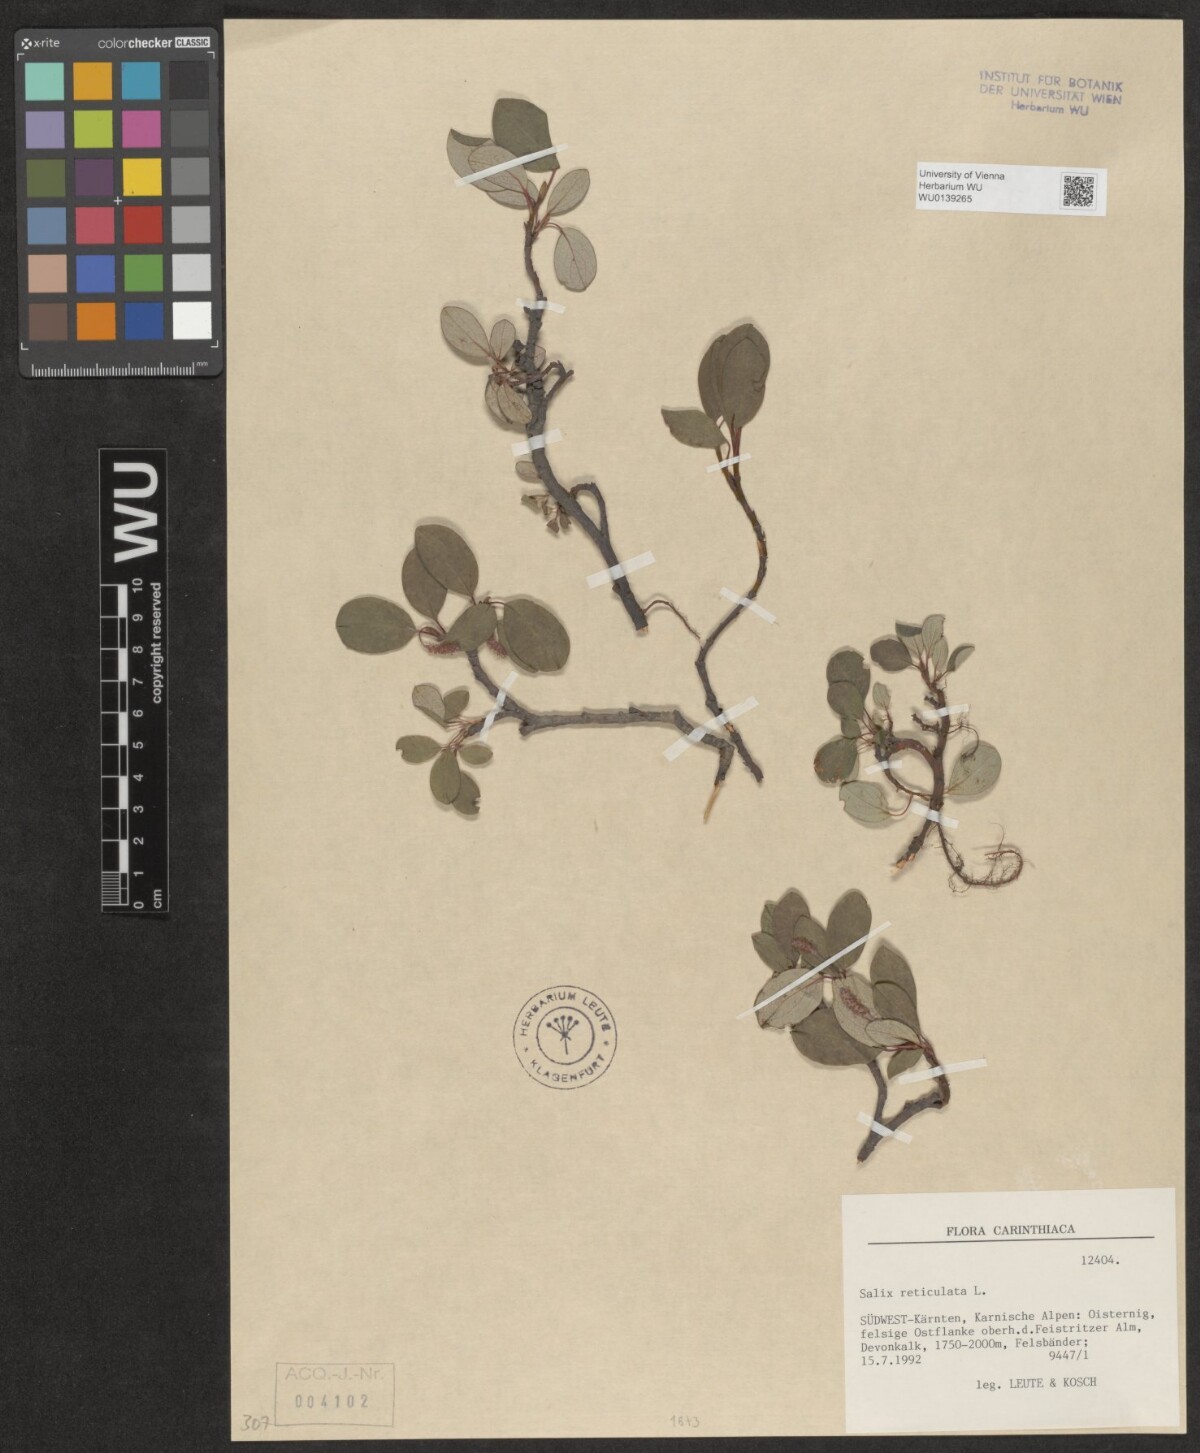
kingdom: Plantae
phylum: Tracheophyta
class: Magnoliopsida
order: Malpighiales
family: Salicaceae
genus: Salix
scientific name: Salix reticulata
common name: Net-leaved willow
